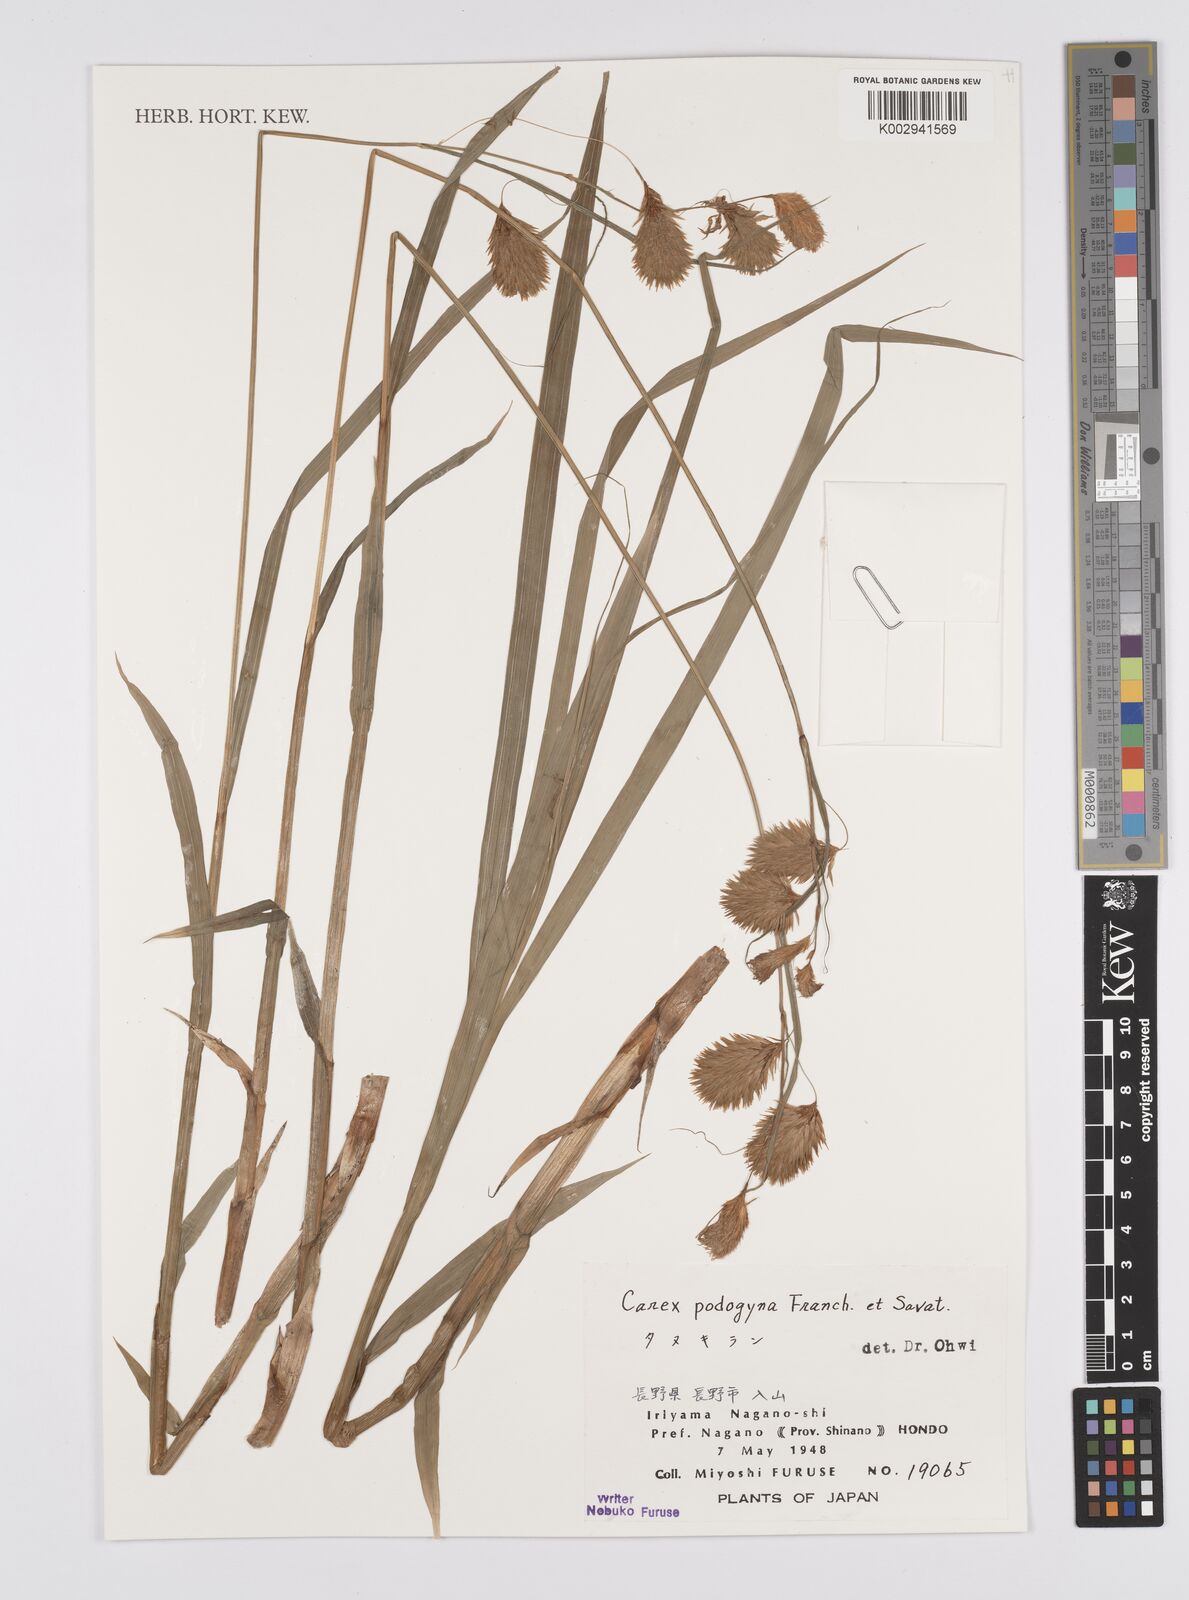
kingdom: Plantae
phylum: Tracheophyta
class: Liliopsida
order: Poales
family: Cyperaceae
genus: Carex
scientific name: Carex podogyna
